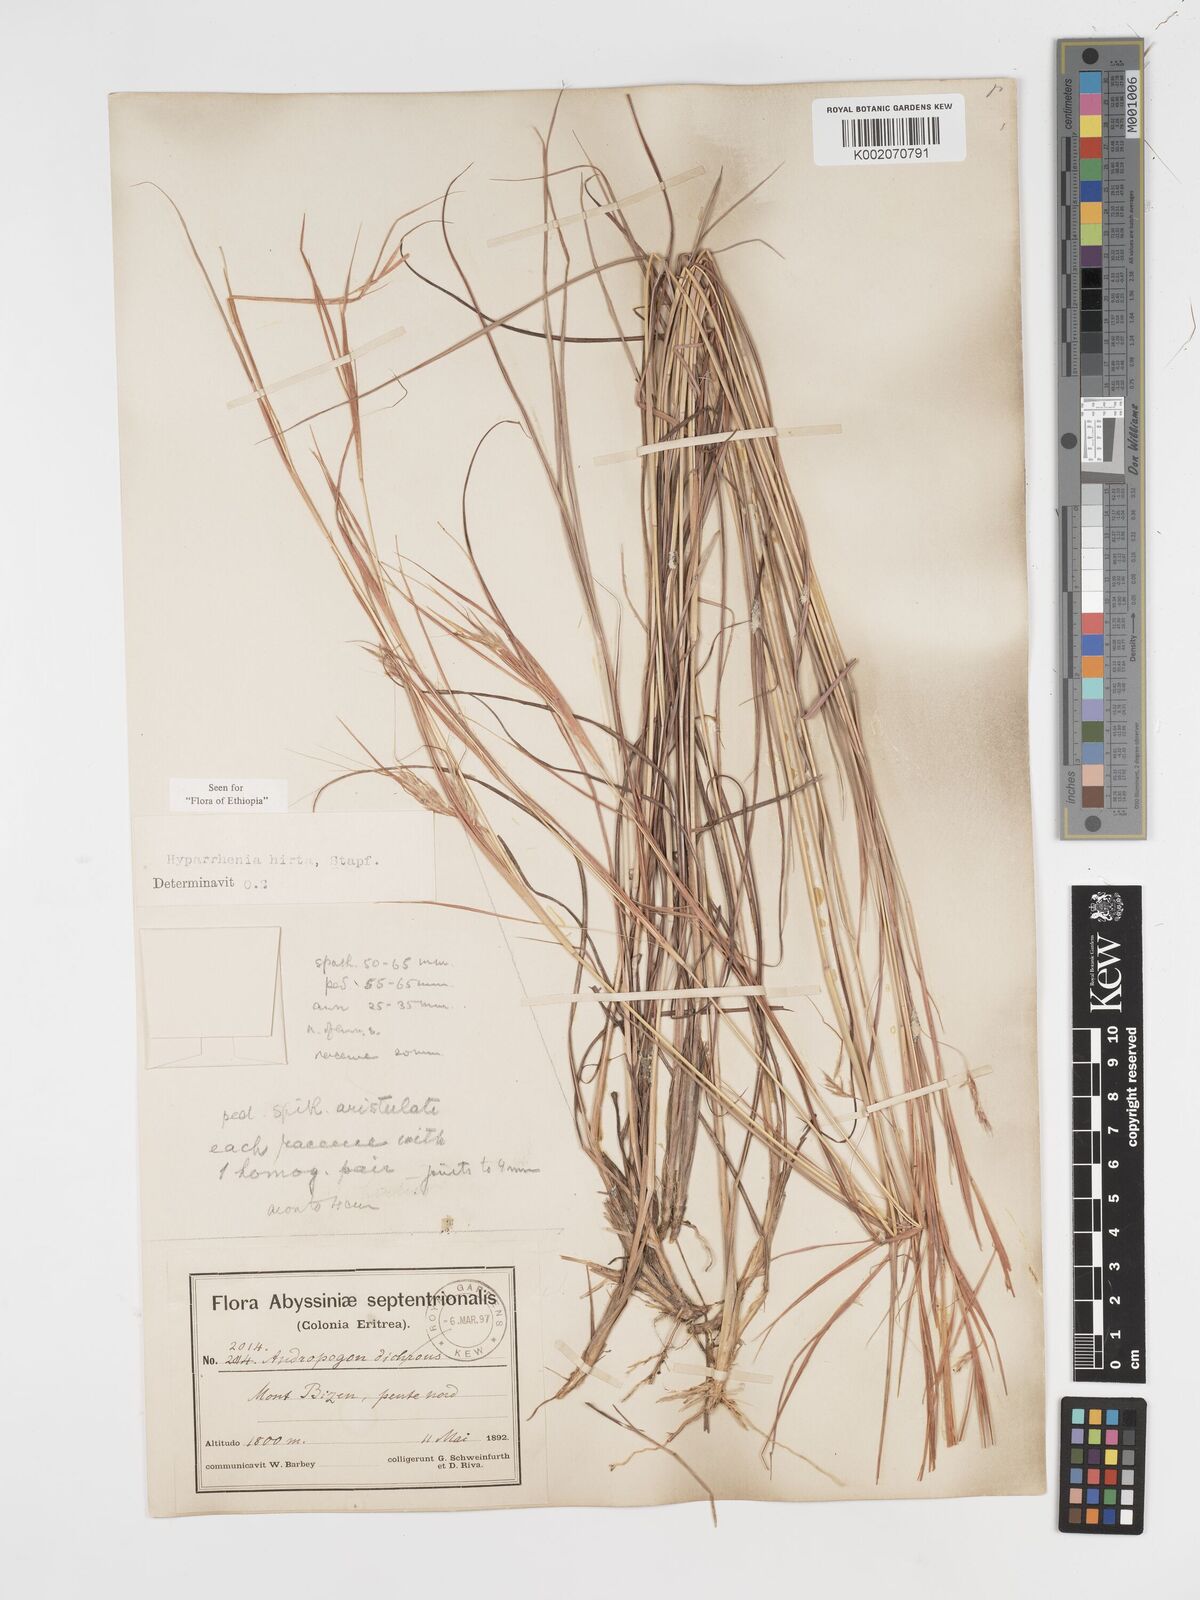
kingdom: Plantae
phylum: Tracheophyta
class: Liliopsida
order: Poales
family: Poaceae
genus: Hyparrhenia
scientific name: Hyparrhenia hirta
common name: Thatching grass
